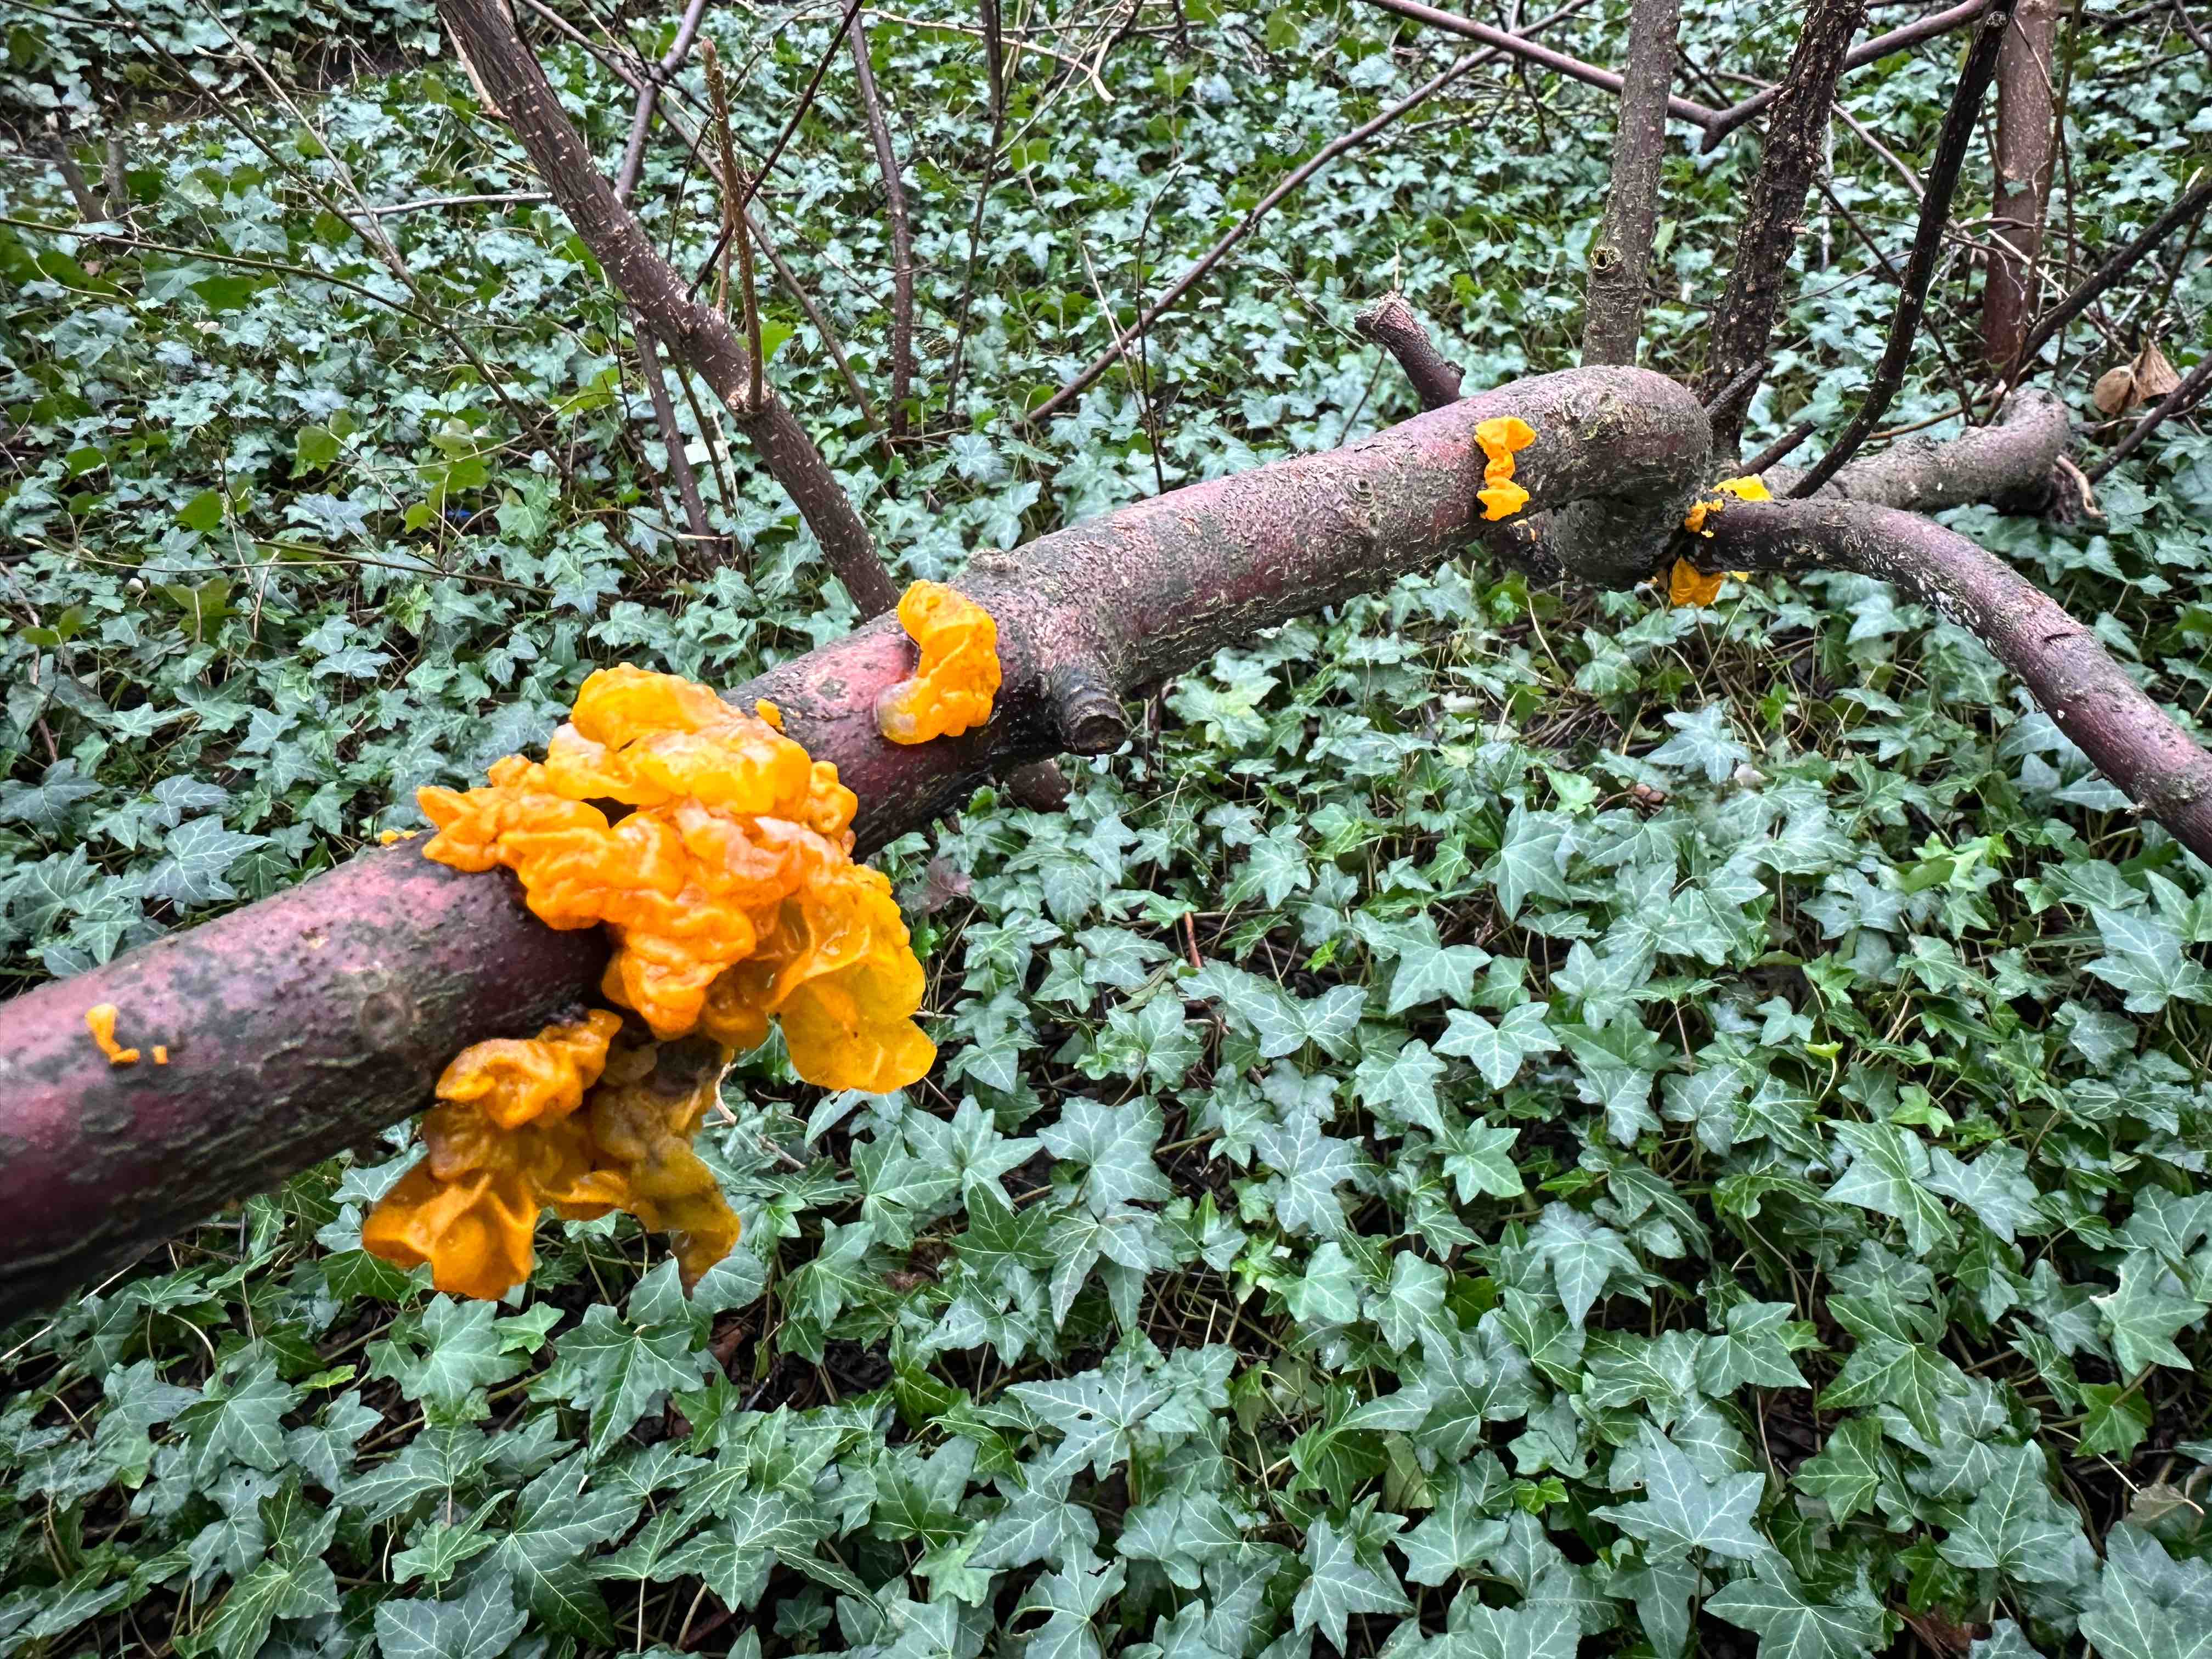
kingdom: Fungi
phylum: Basidiomycota
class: Tremellomycetes
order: Tremellales
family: Tremellaceae
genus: Tremella
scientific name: Tremella mesenterica
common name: gul bævresvamp
